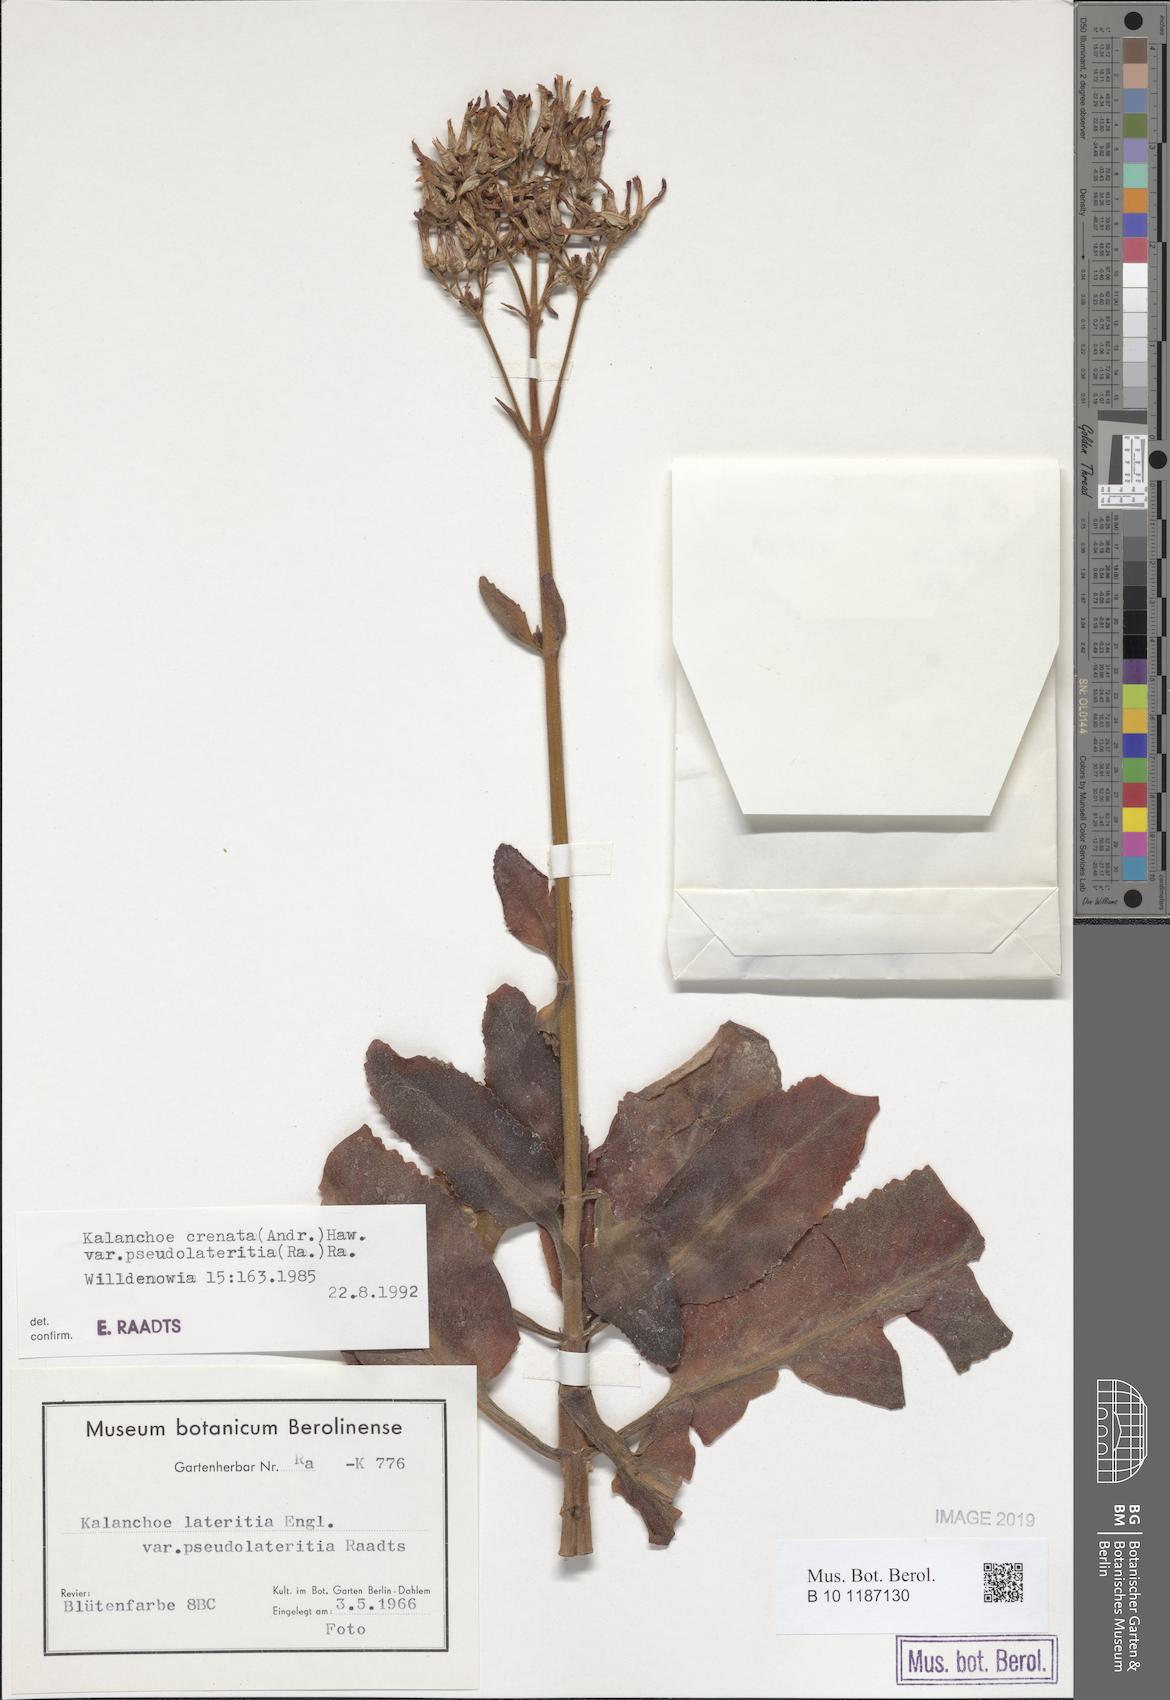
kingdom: Plantae
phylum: Tracheophyta
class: Magnoliopsida
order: Saxifragales
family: Crassulaceae
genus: Kalanchoe
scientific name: Kalanchoe lateritia
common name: Kalanchoe
